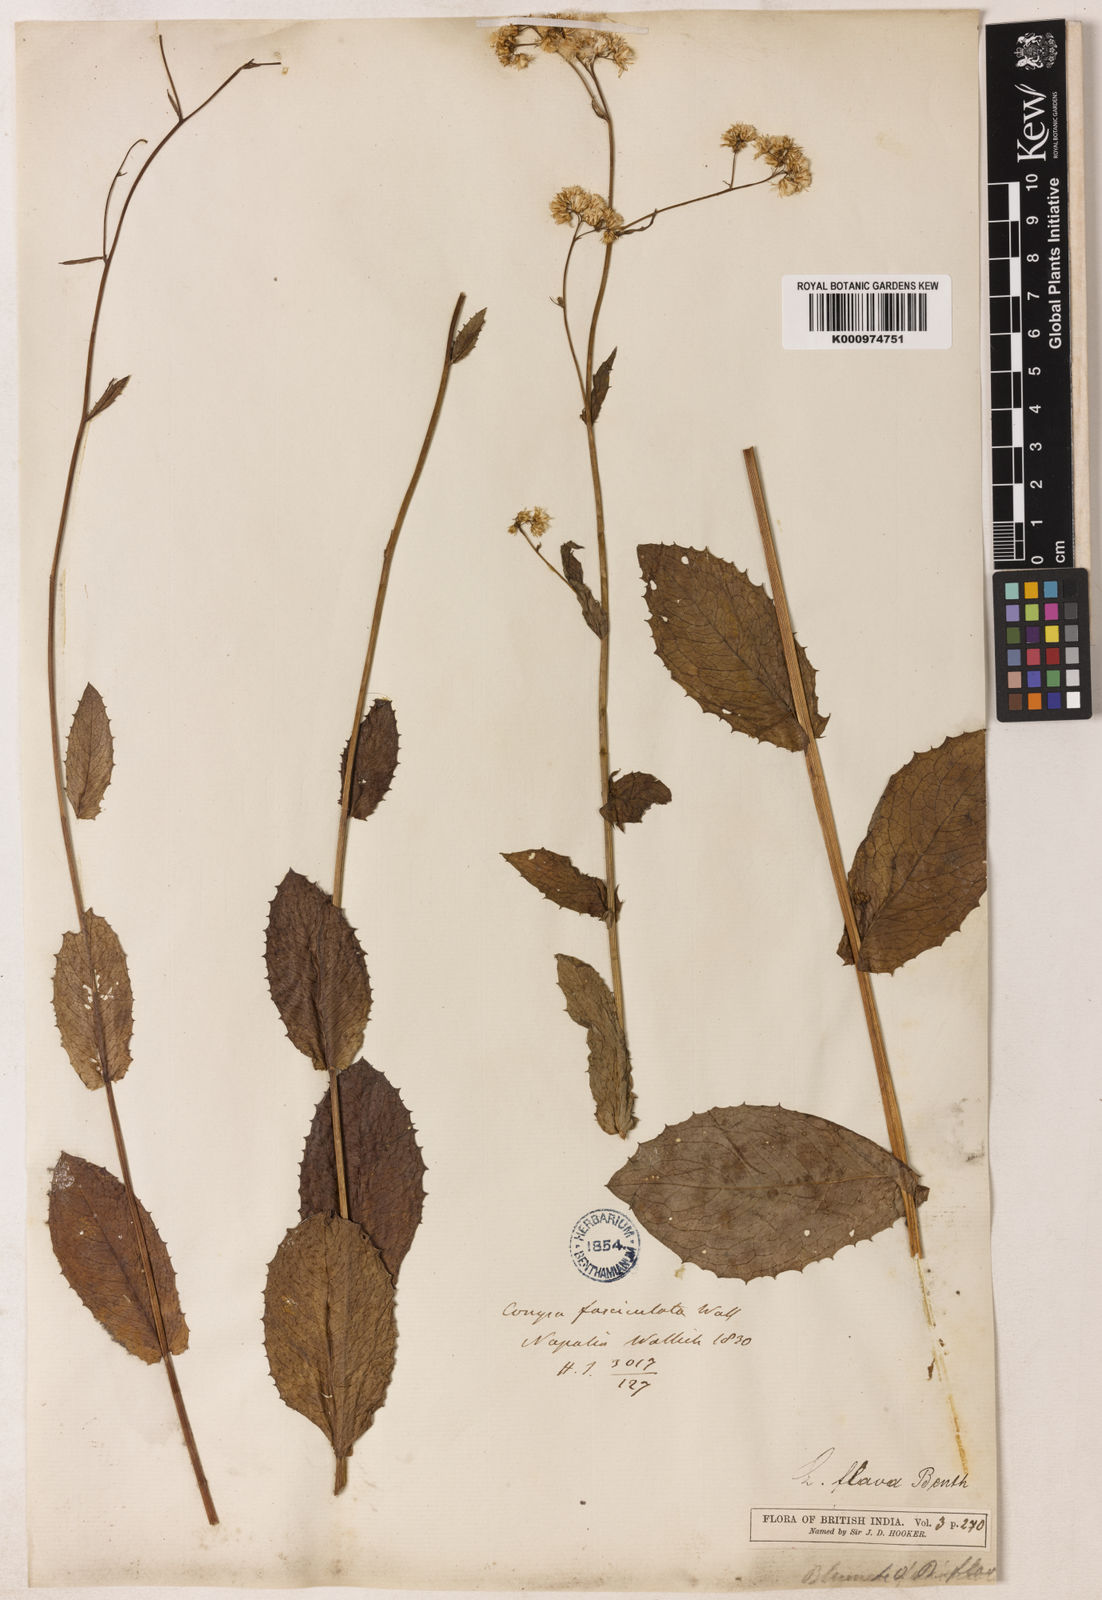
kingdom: Plantae
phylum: Tracheophyta
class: Magnoliopsida
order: Asterales
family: Asteraceae
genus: Blumeopsis
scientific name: Blumeopsis flava
